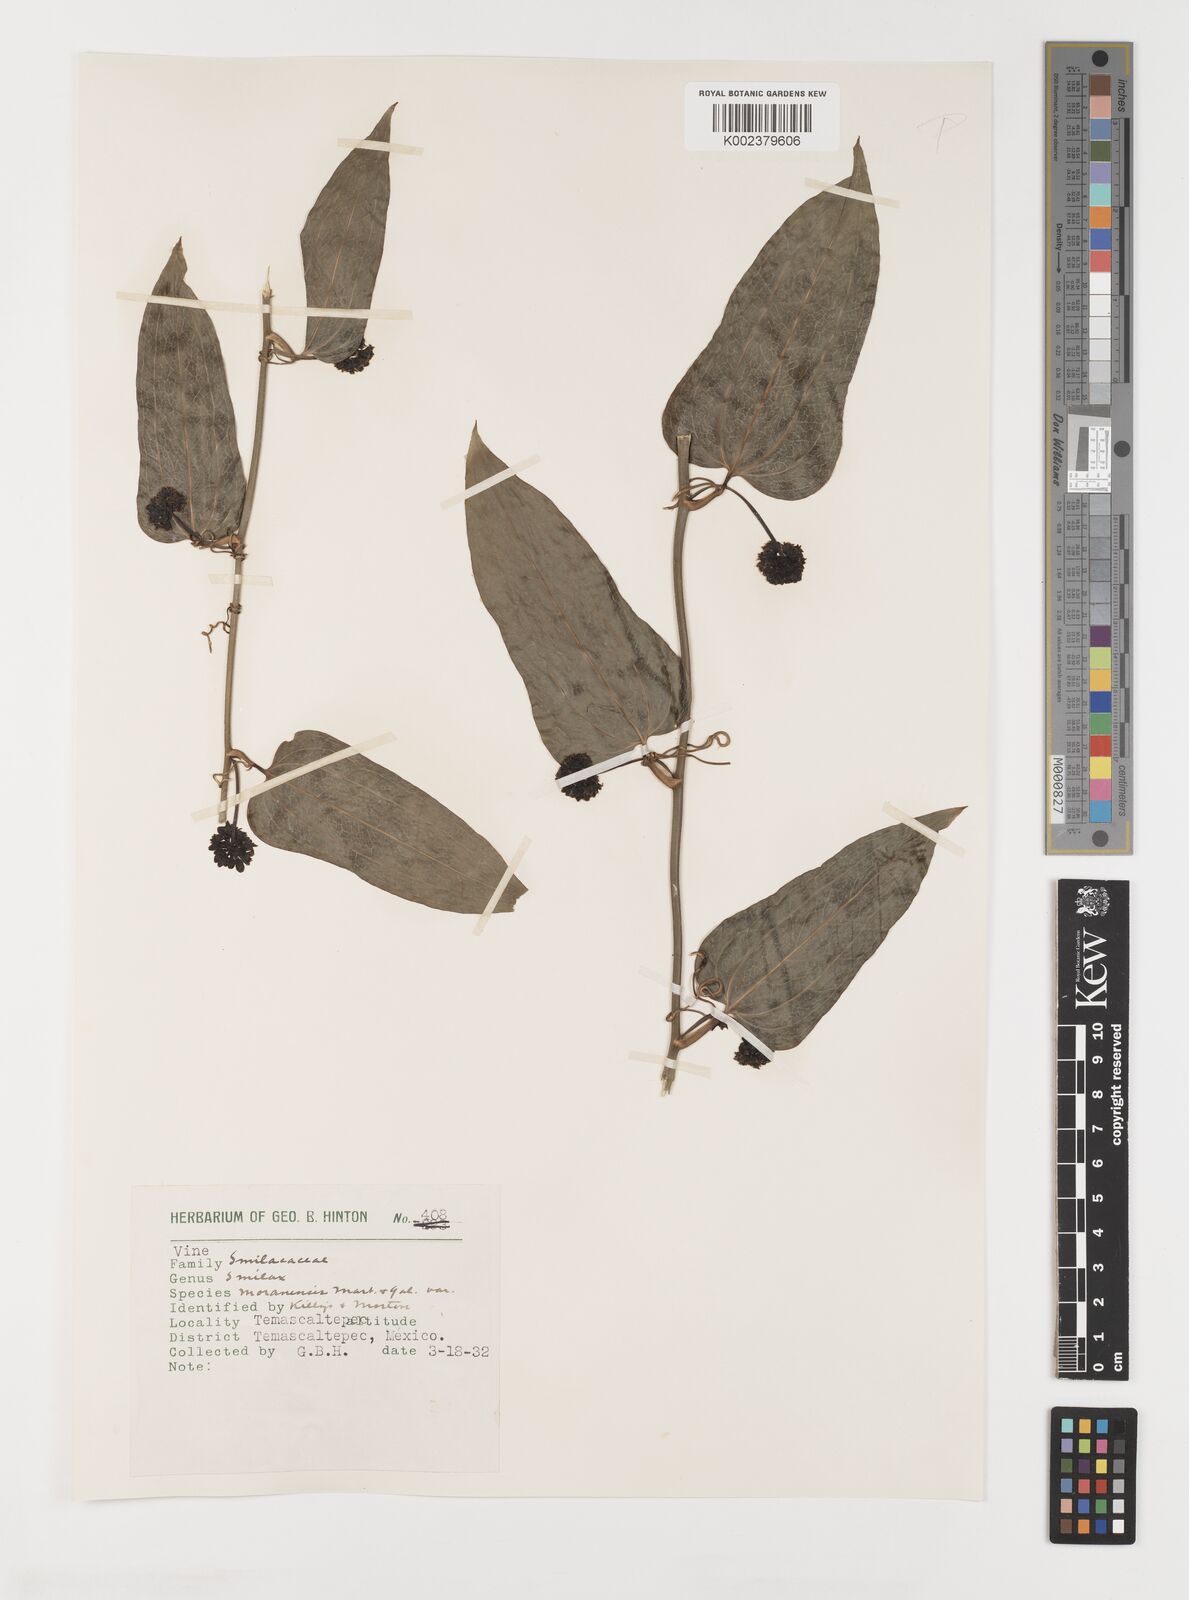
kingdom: Plantae
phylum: Tracheophyta
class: Liliopsida
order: Liliales
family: Smilacaceae
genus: Smilax
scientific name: Smilax moranensis
